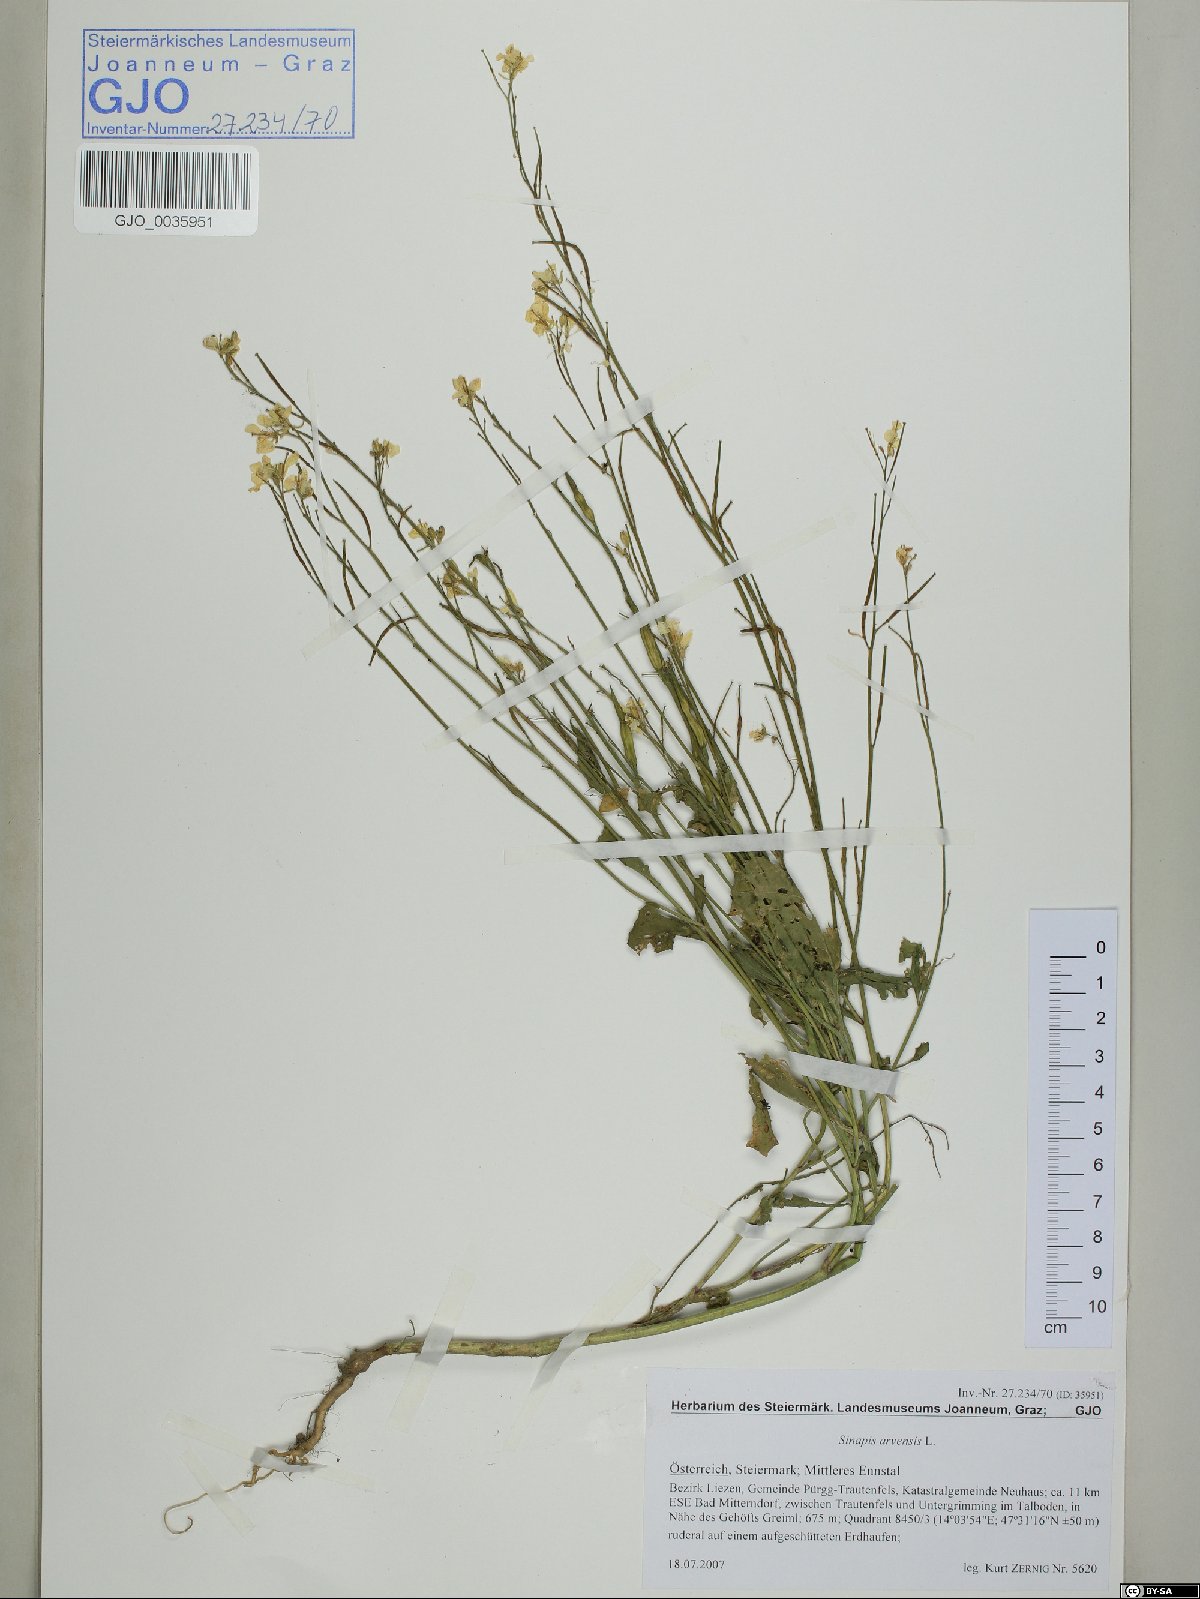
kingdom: Plantae
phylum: Tracheophyta
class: Magnoliopsida
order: Brassicales
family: Brassicaceae
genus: Sinapis
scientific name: Sinapis arvensis
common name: Charlock
